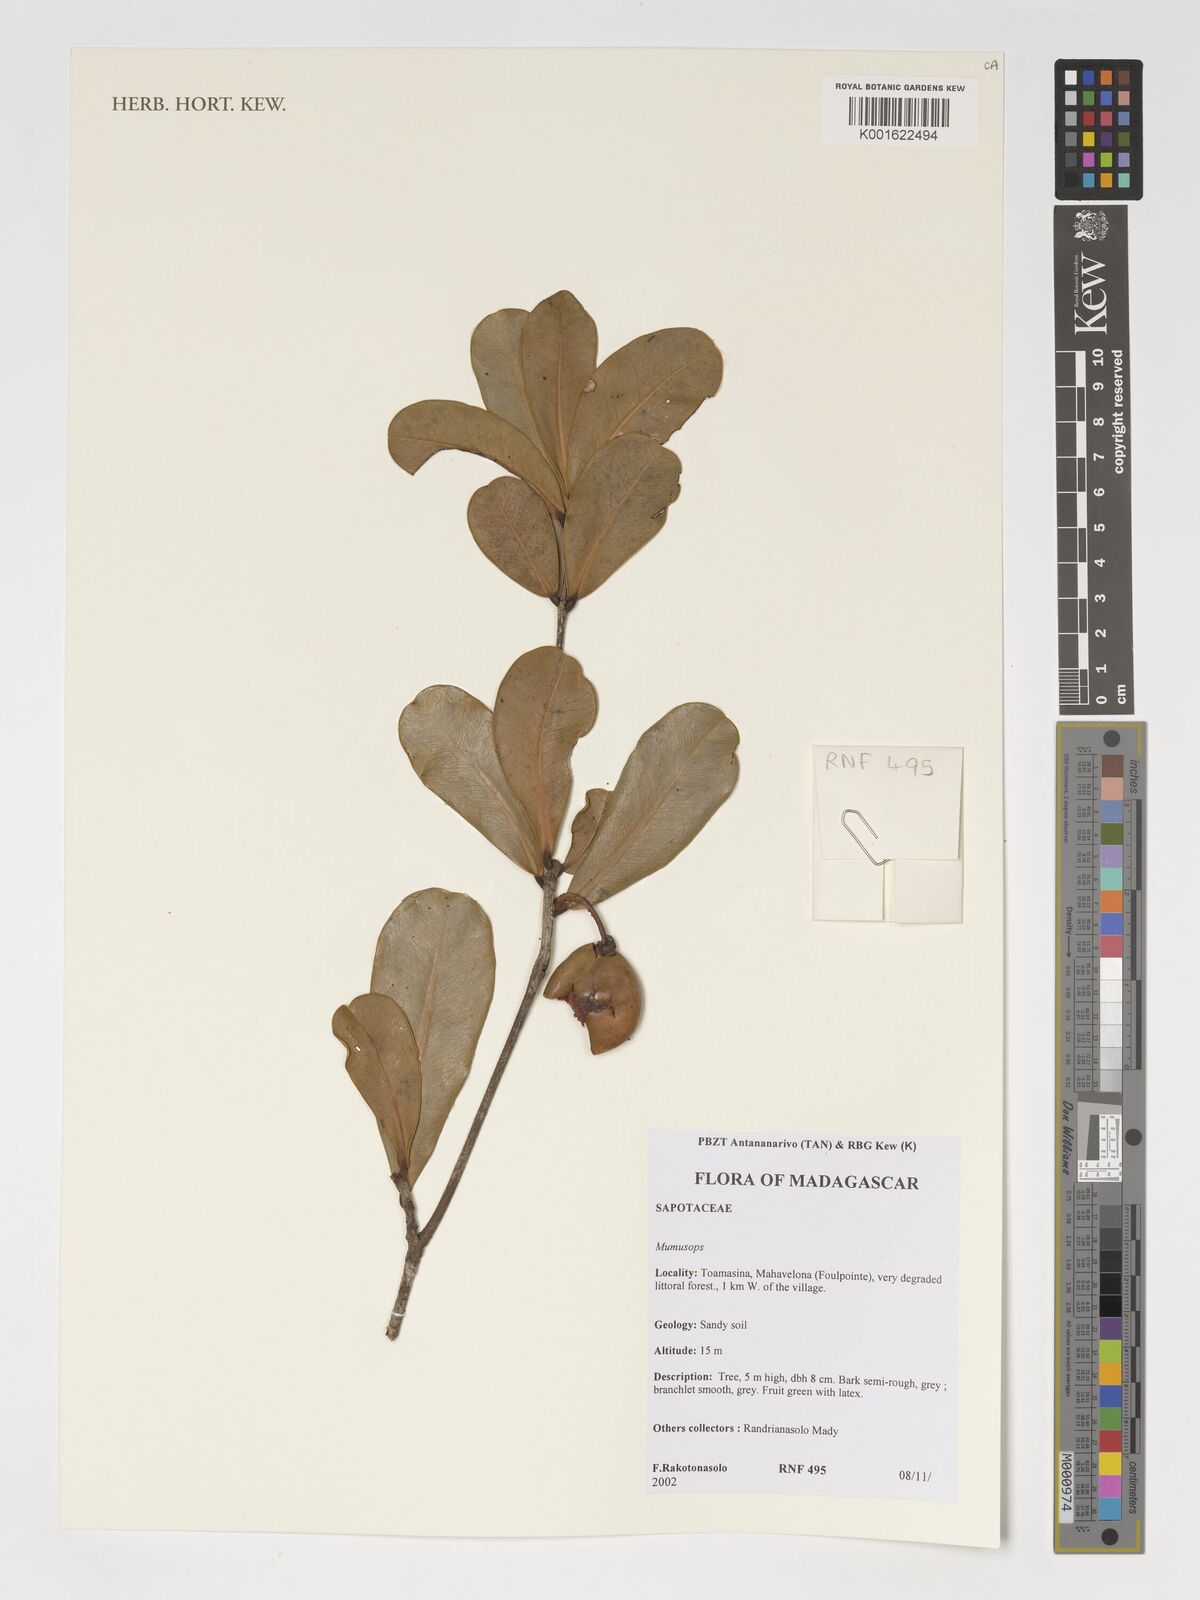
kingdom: Plantae
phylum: Tracheophyta
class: Magnoliopsida
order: Ericales
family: Sapotaceae
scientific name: Sapotaceae
